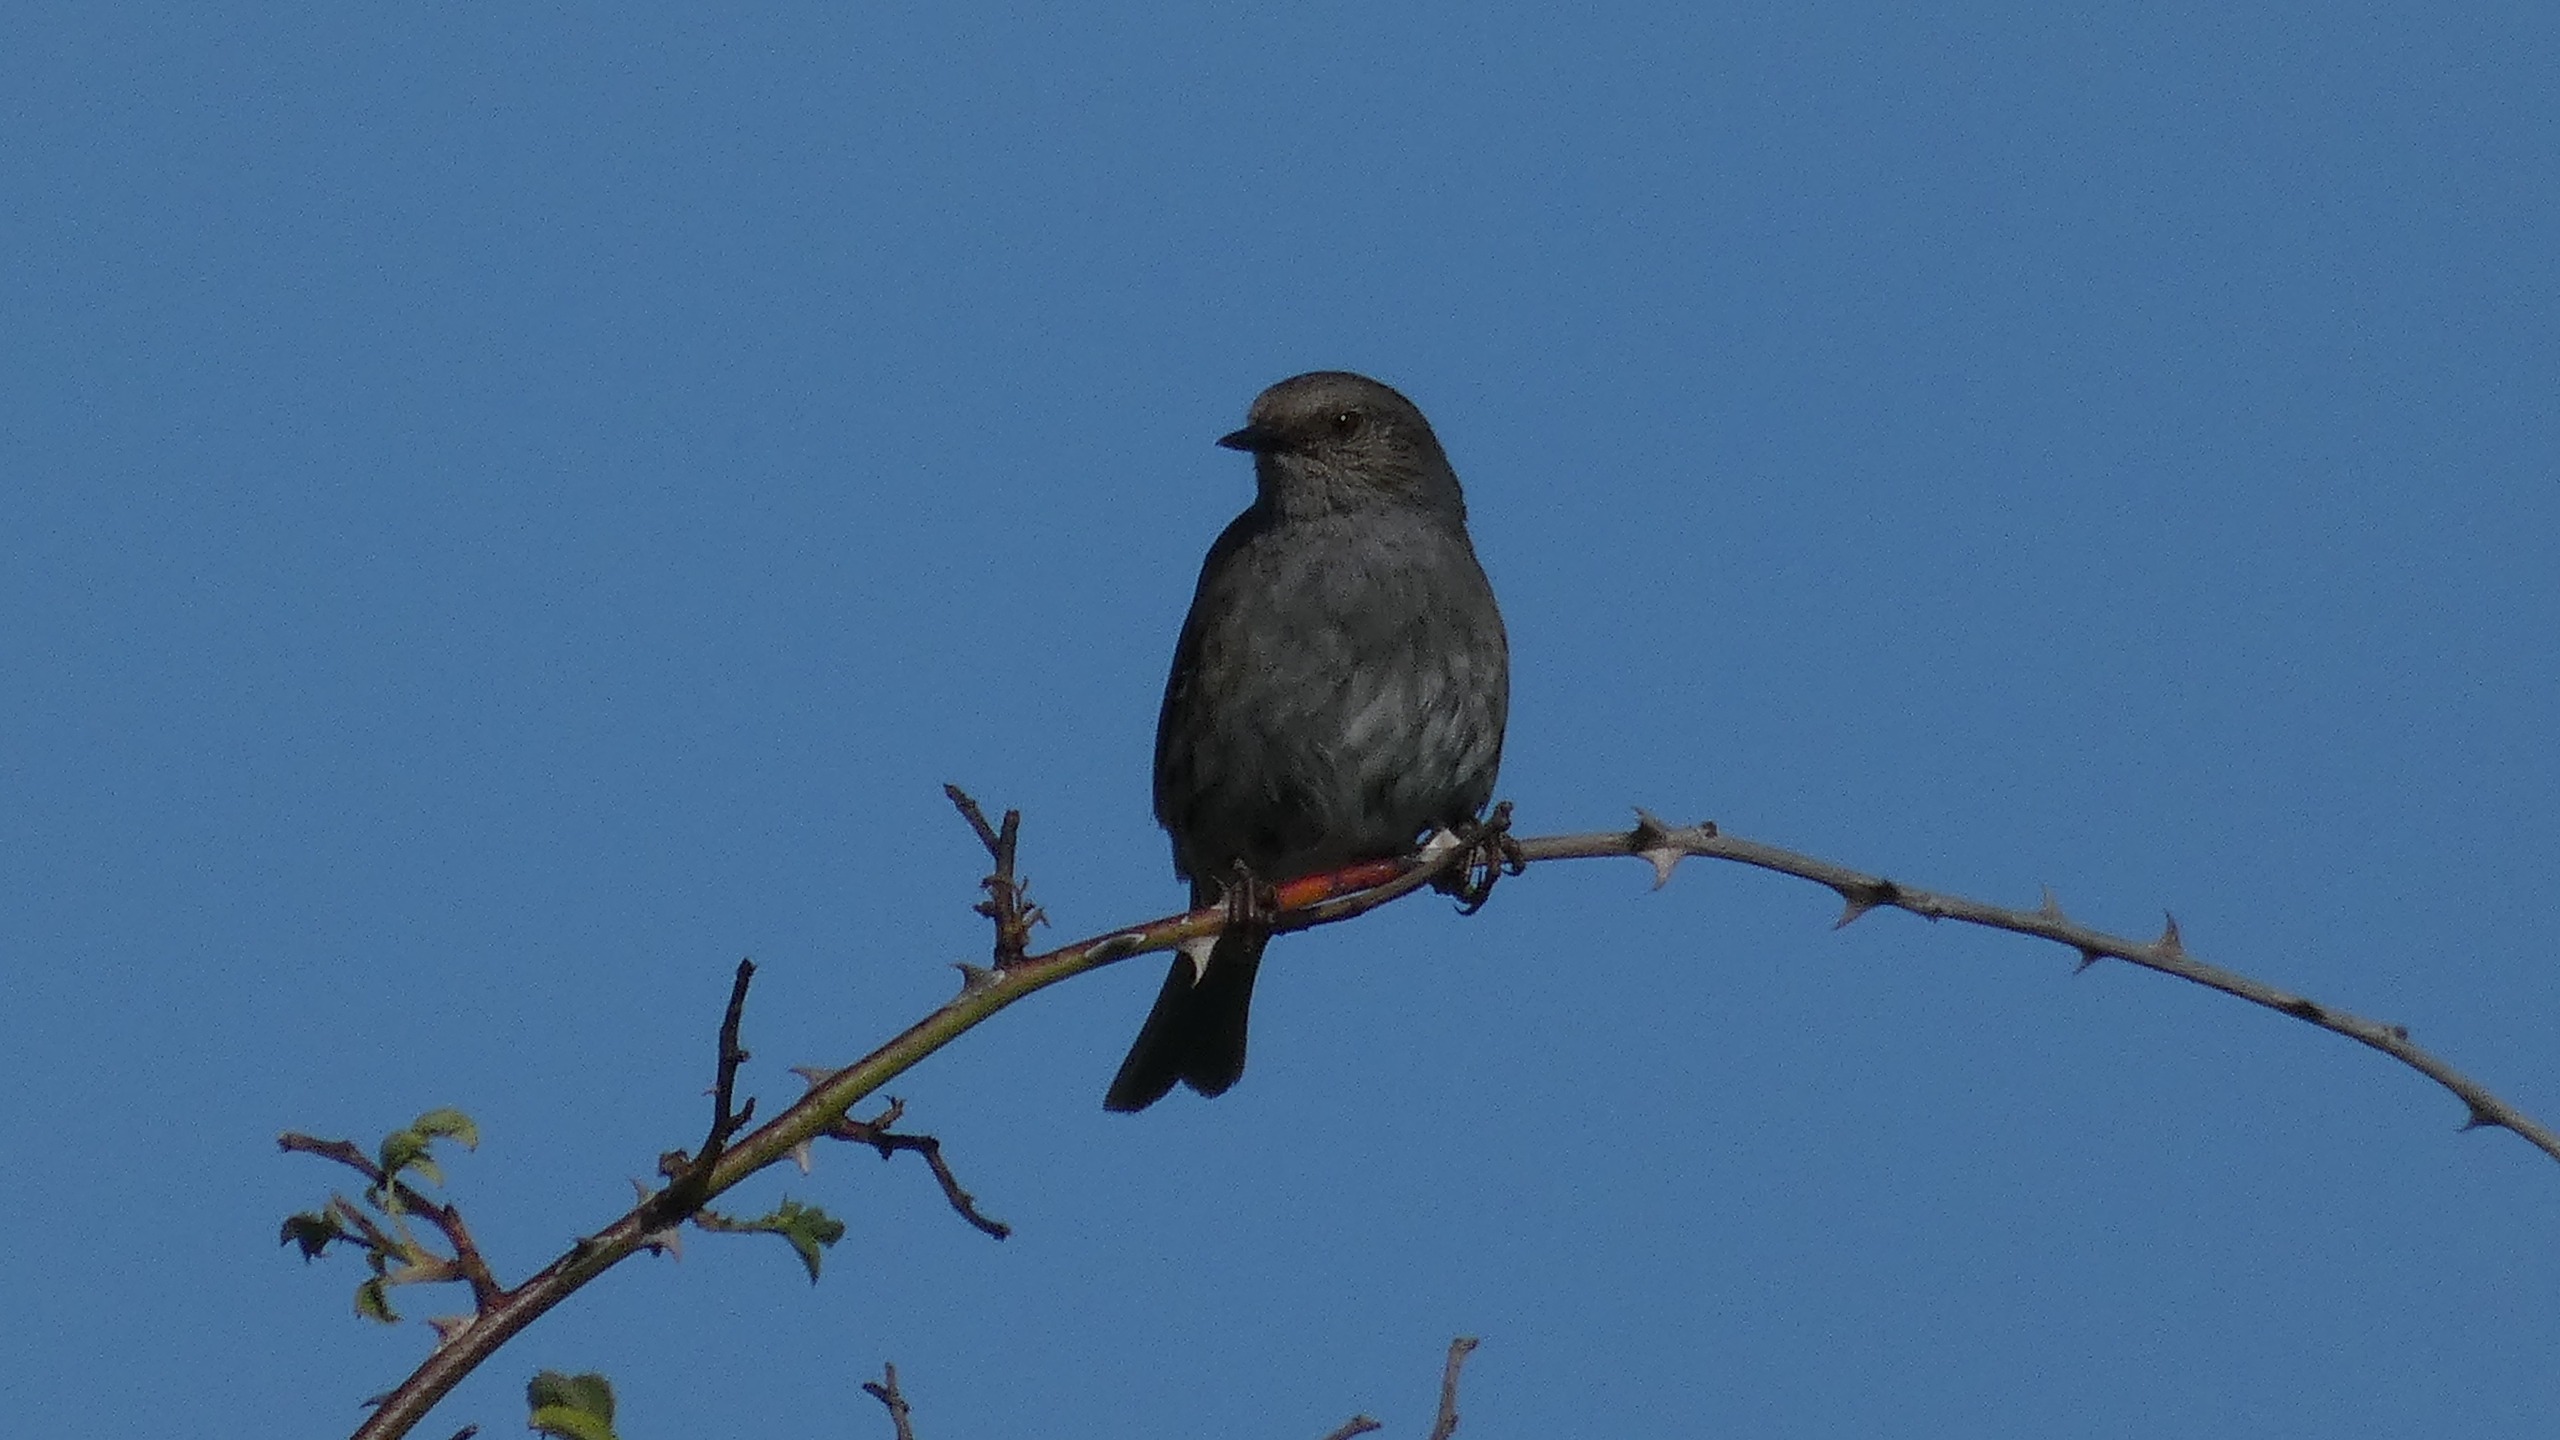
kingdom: Animalia
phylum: Chordata
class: Aves
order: Passeriformes
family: Prunellidae
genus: Prunella
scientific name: Prunella modularis
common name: Jernspurv
